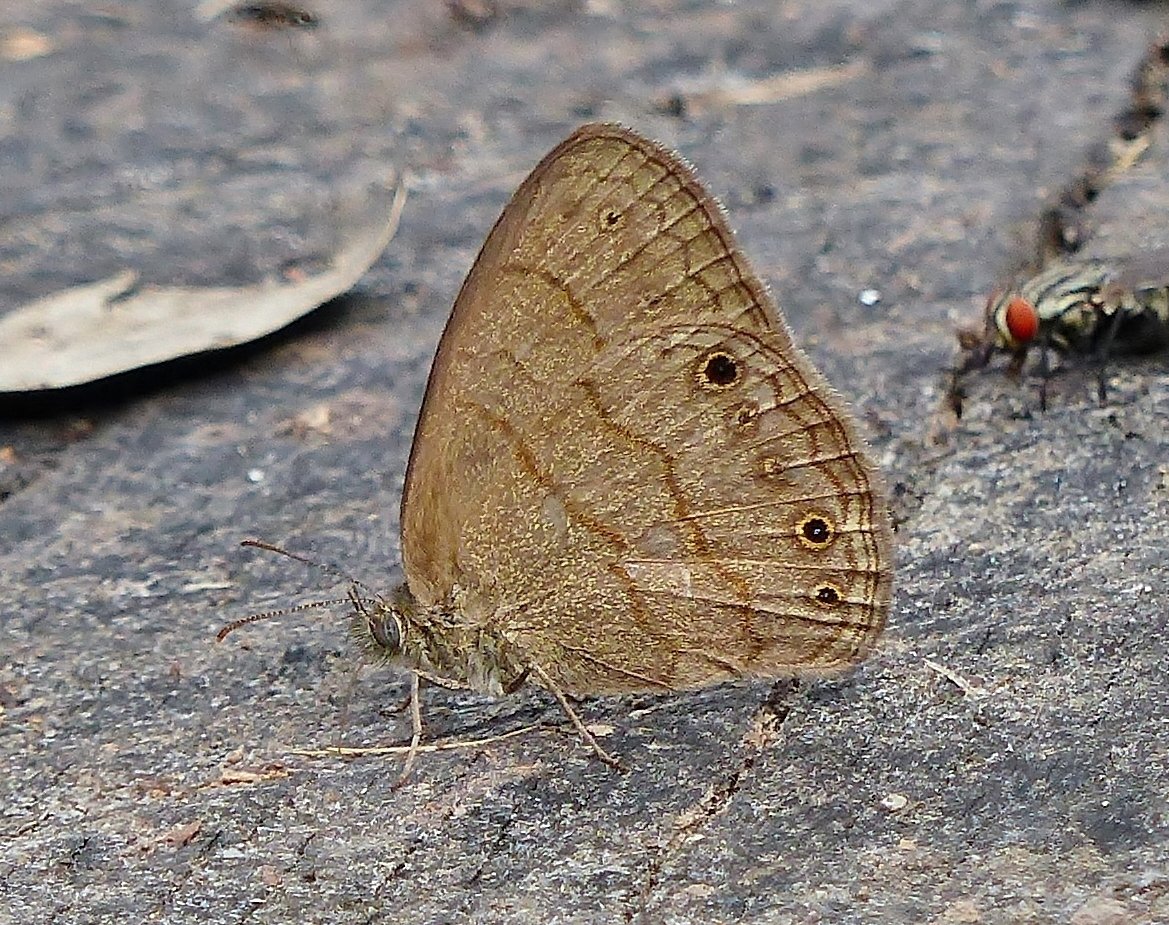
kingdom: Animalia
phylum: Arthropoda
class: Insecta
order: Lepidoptera
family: Nymphalidae
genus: Hermeuptychia
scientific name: Hermeuptychia hermybius
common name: South Texas Satyr
